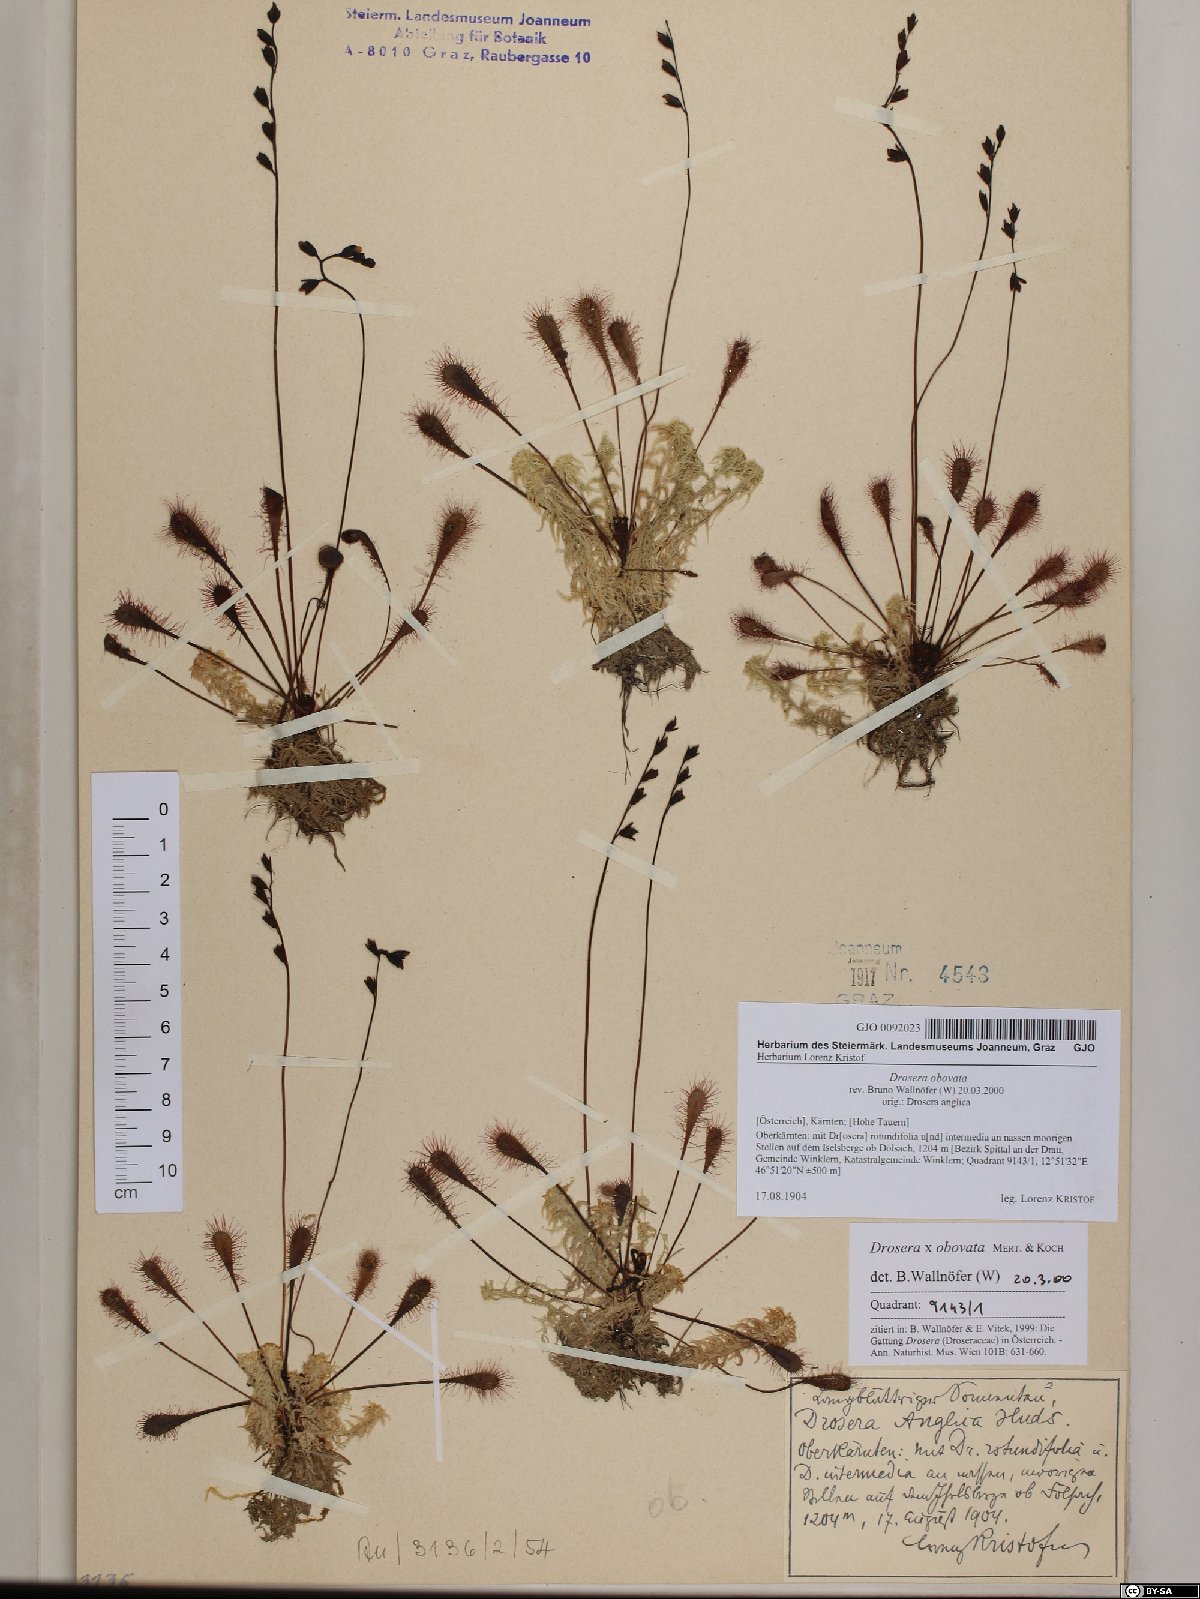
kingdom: Plantae
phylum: Tracheophyta
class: Magnoliopsida
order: Caryophyllales
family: Droseraceae
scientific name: Droseraceae
